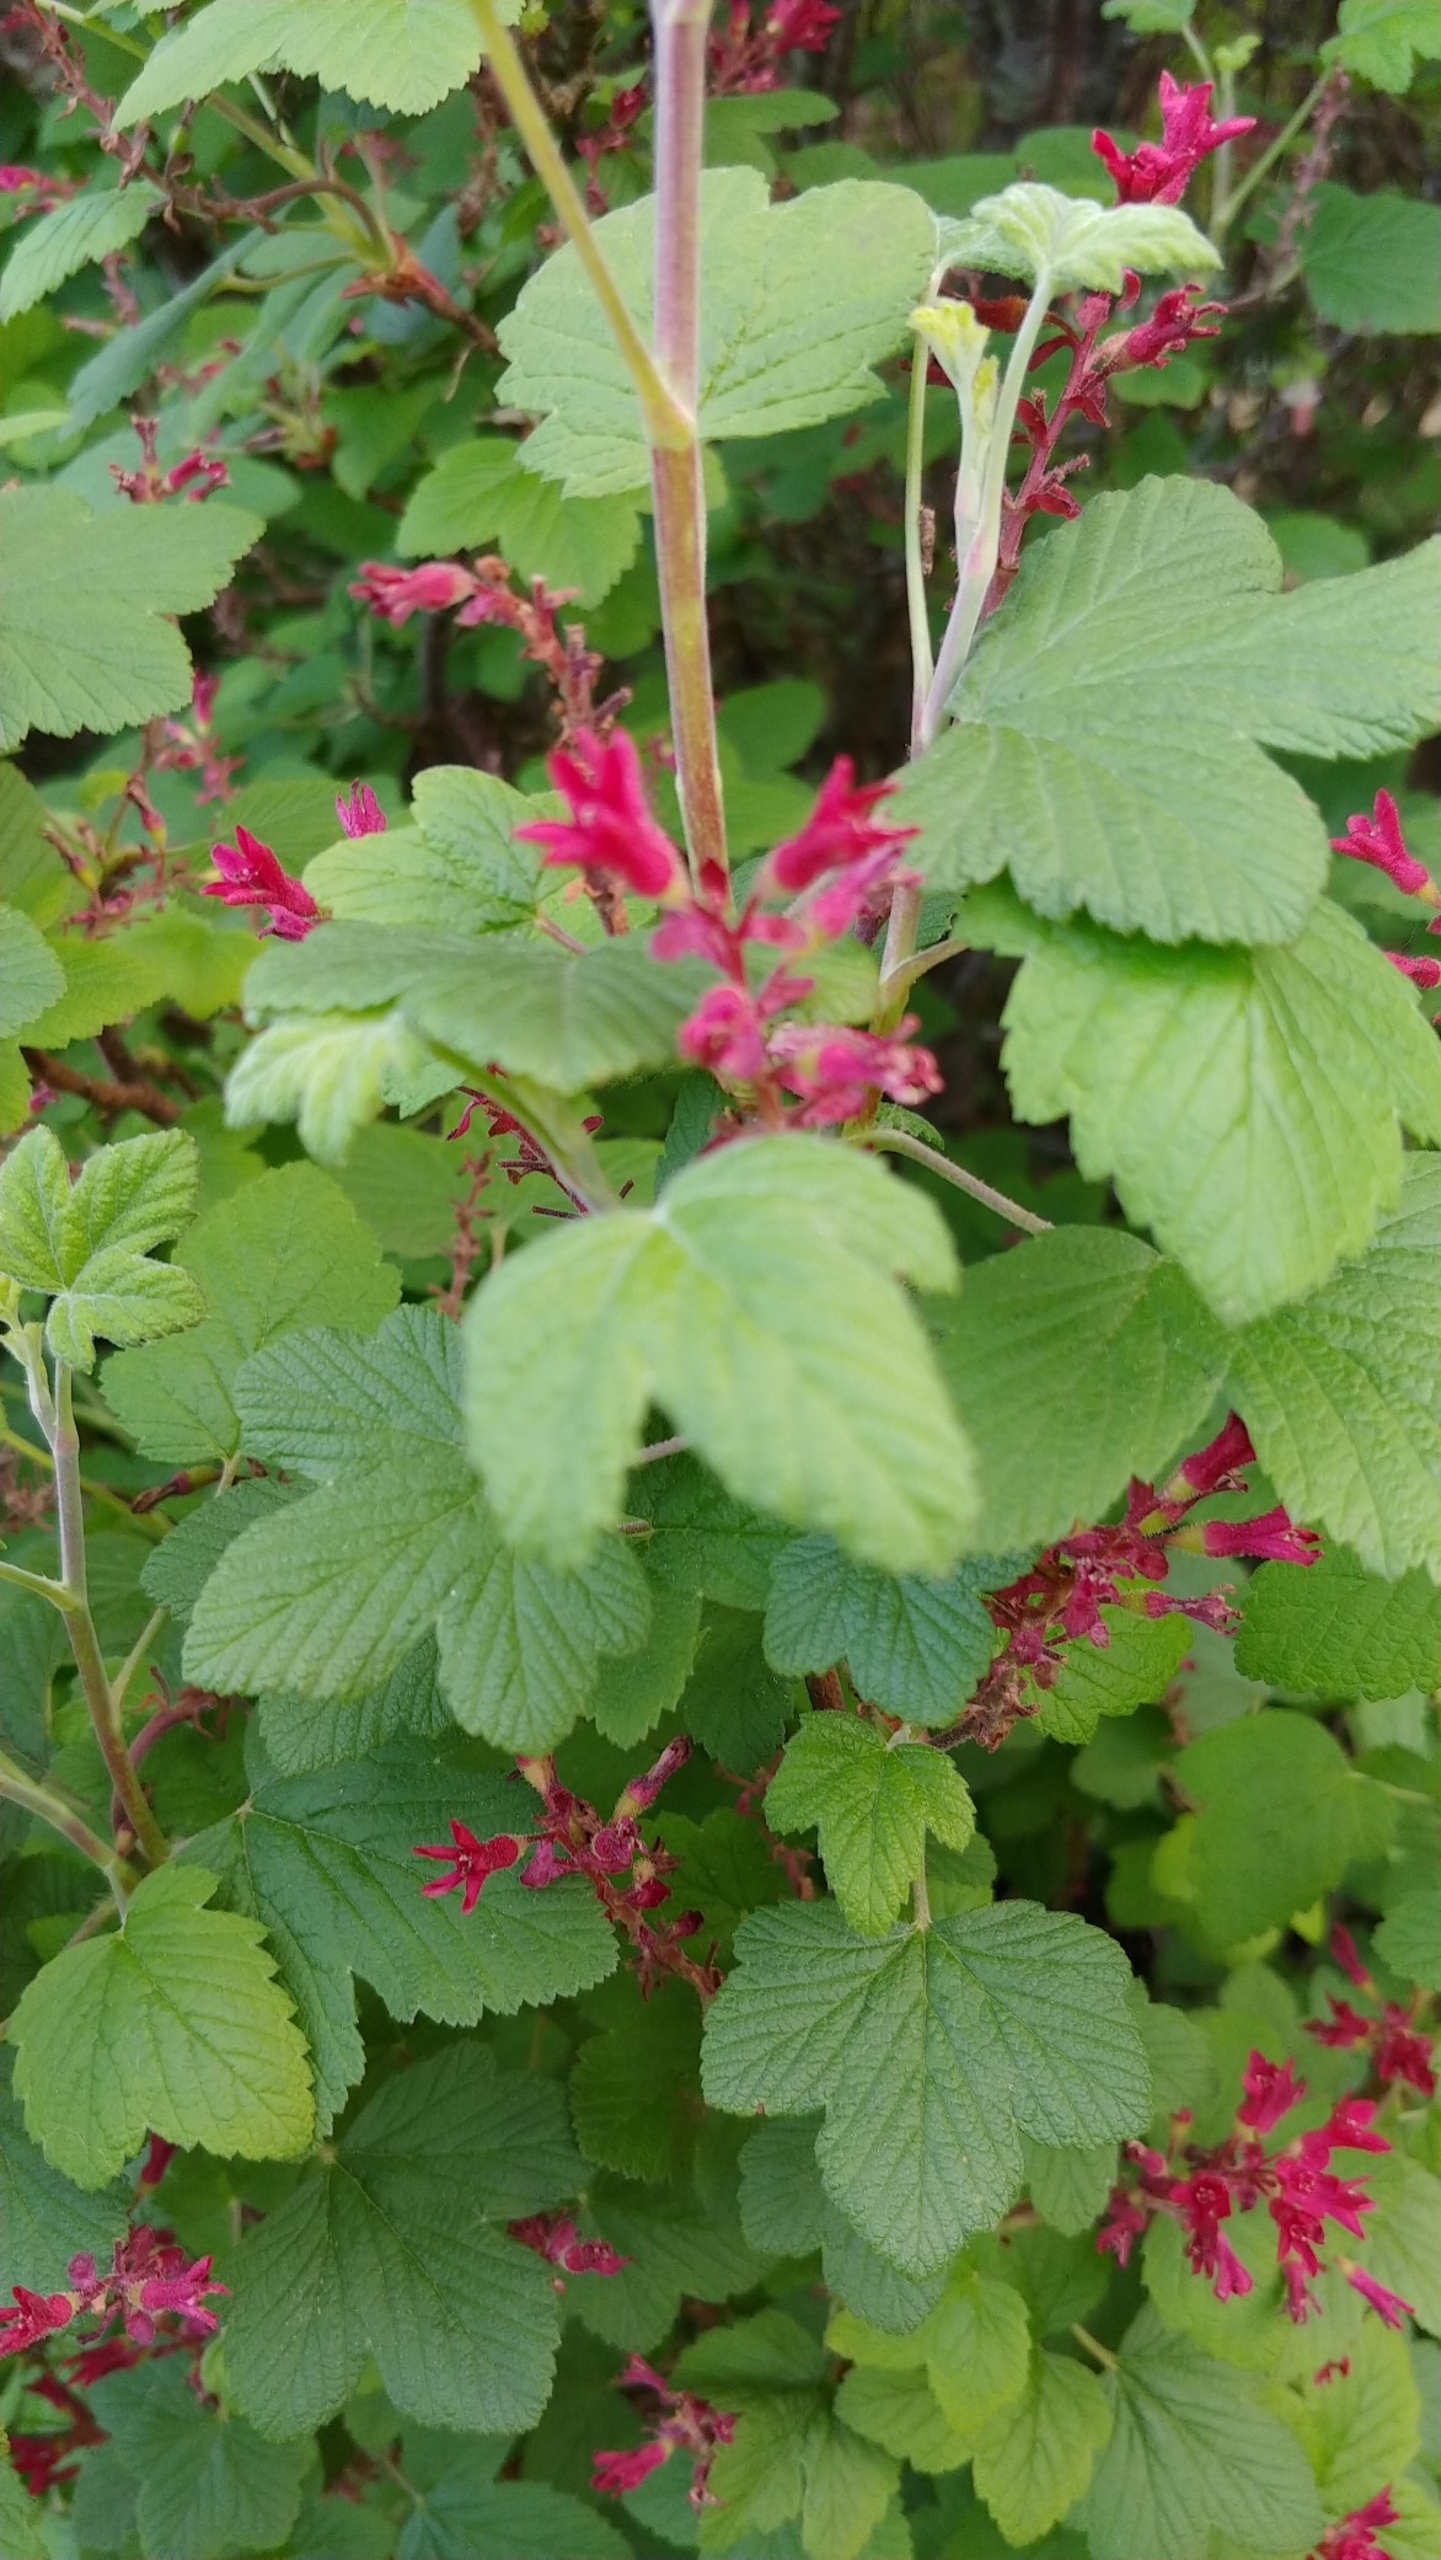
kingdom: Plantae
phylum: Tracheophyta
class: Magnoliopsida
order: Saxifragales
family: Grossulariaceae
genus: Ribes
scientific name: Ribes sanguineum
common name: Blod-ribs
